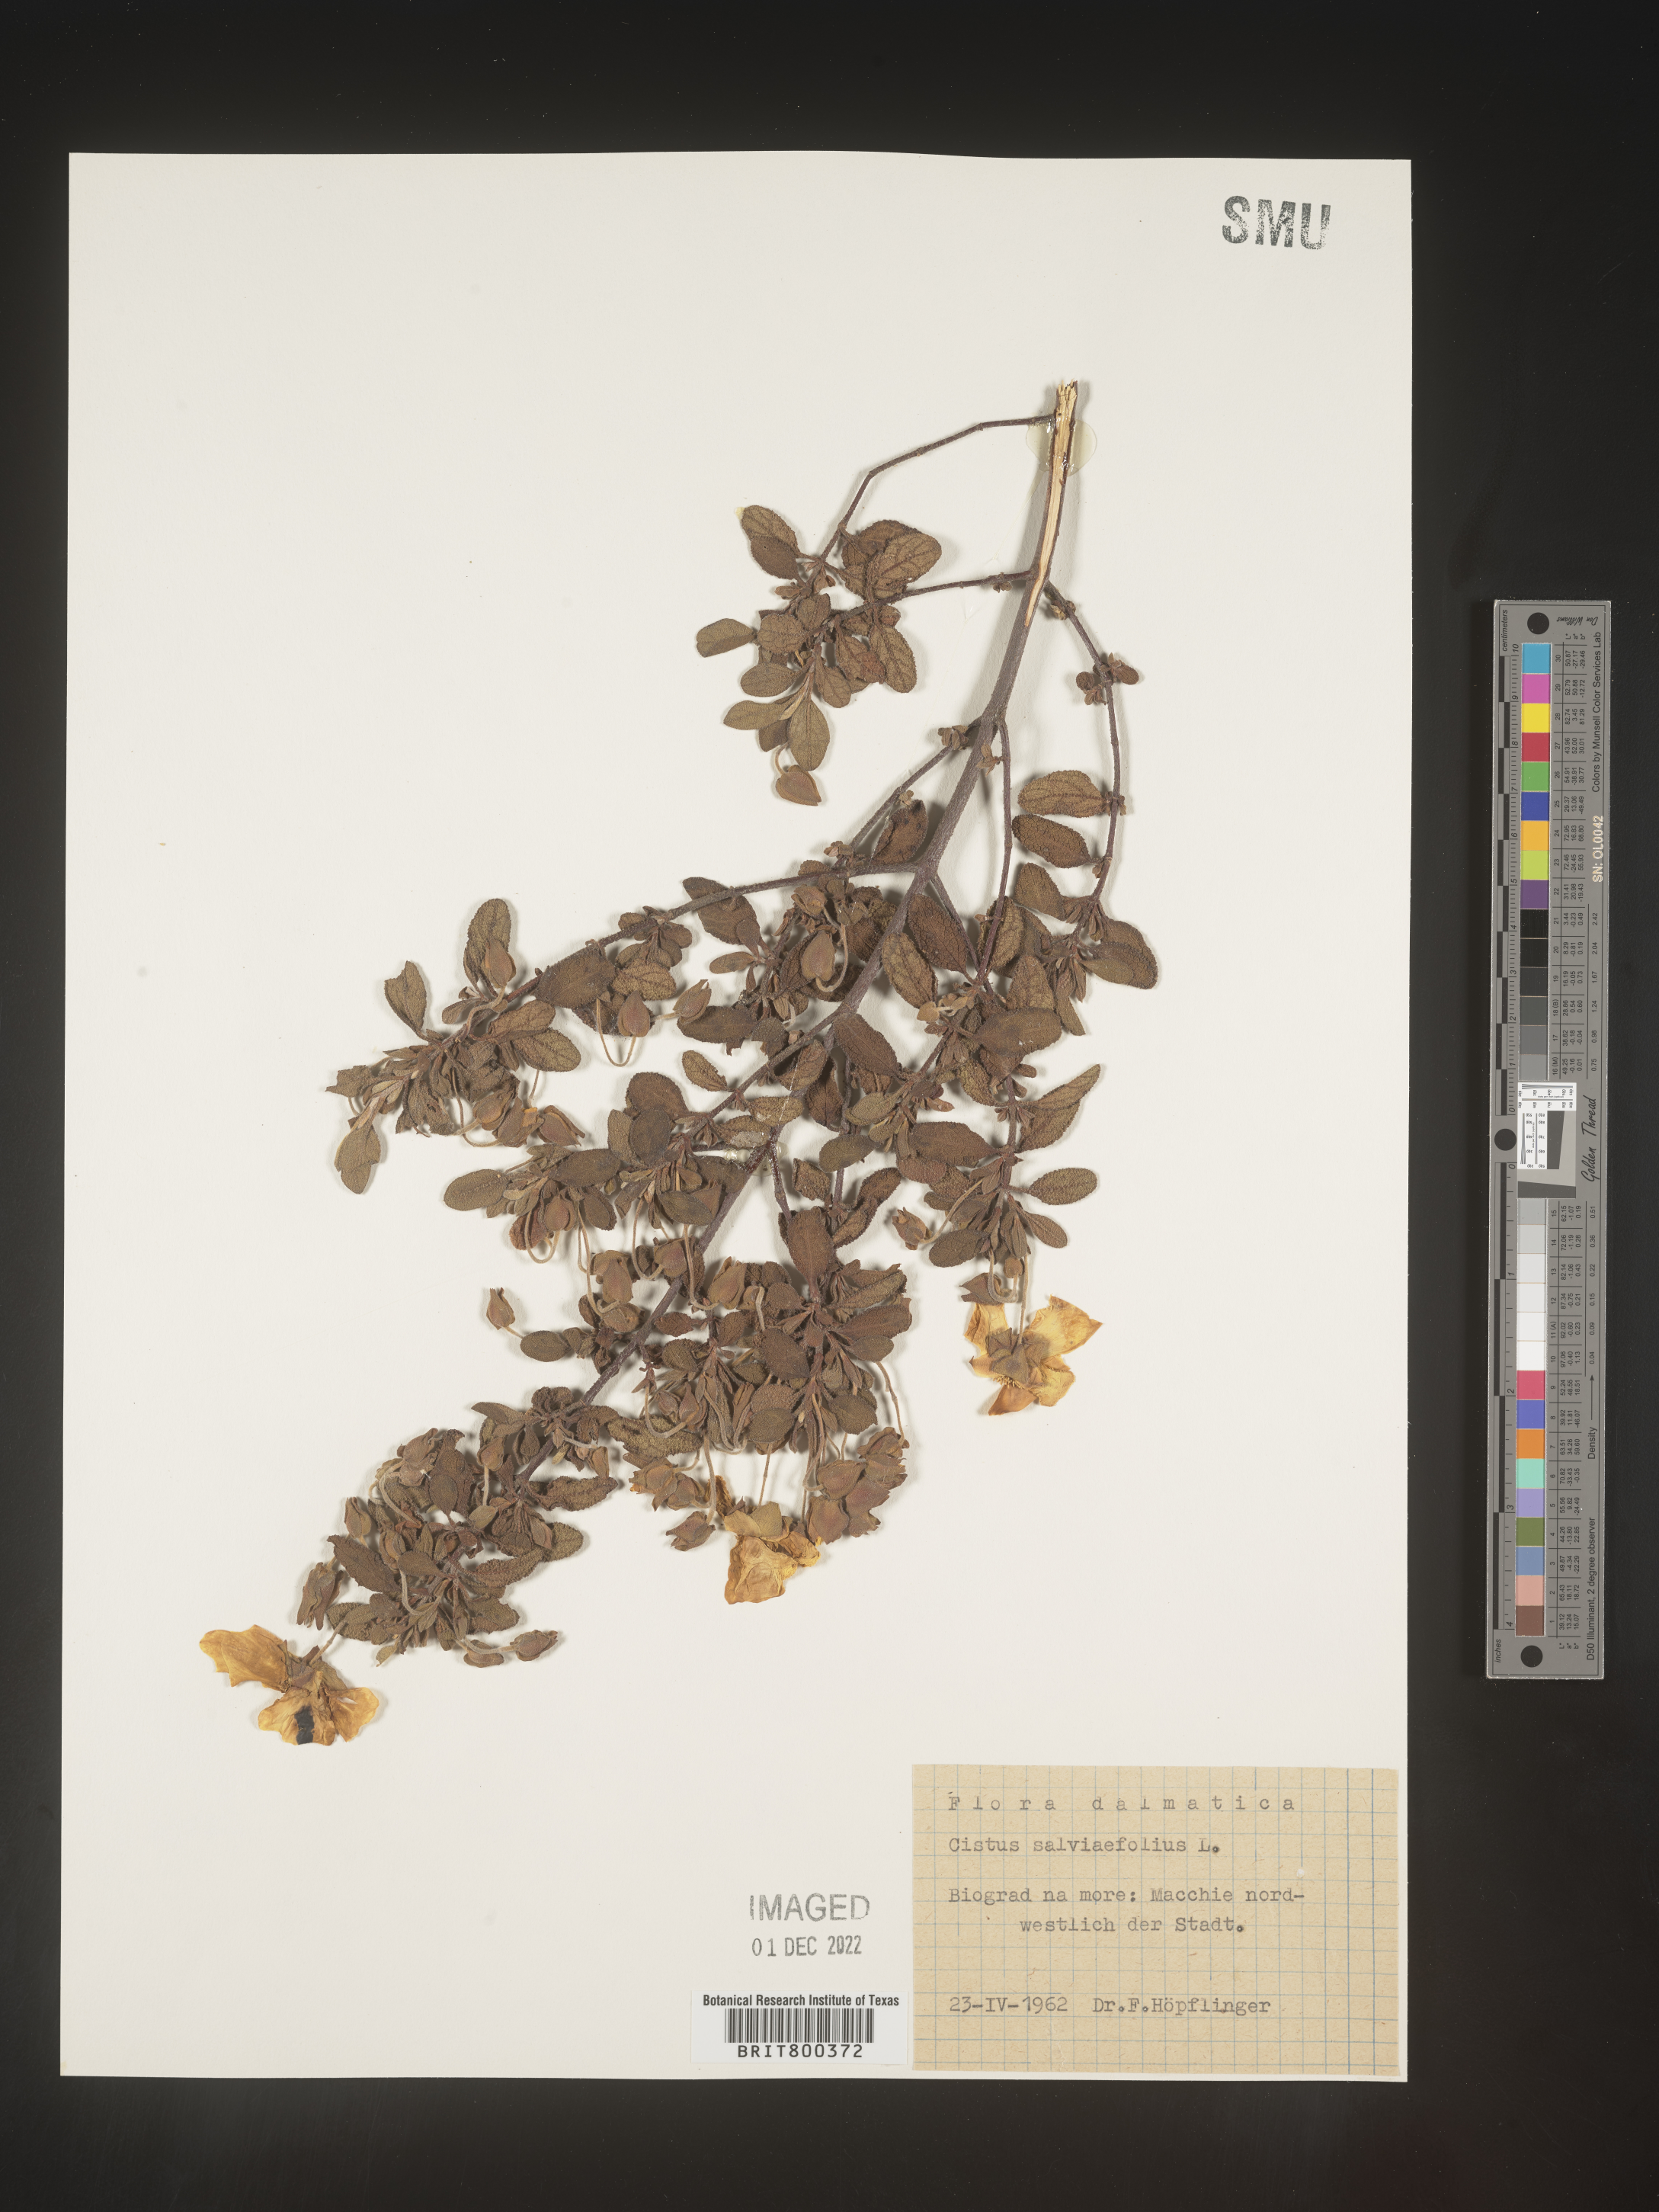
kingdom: Plantae
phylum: Tracheophyta
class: Magnoliopsida
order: Malvales
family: Cistaceae
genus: Cistus
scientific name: Cistus
